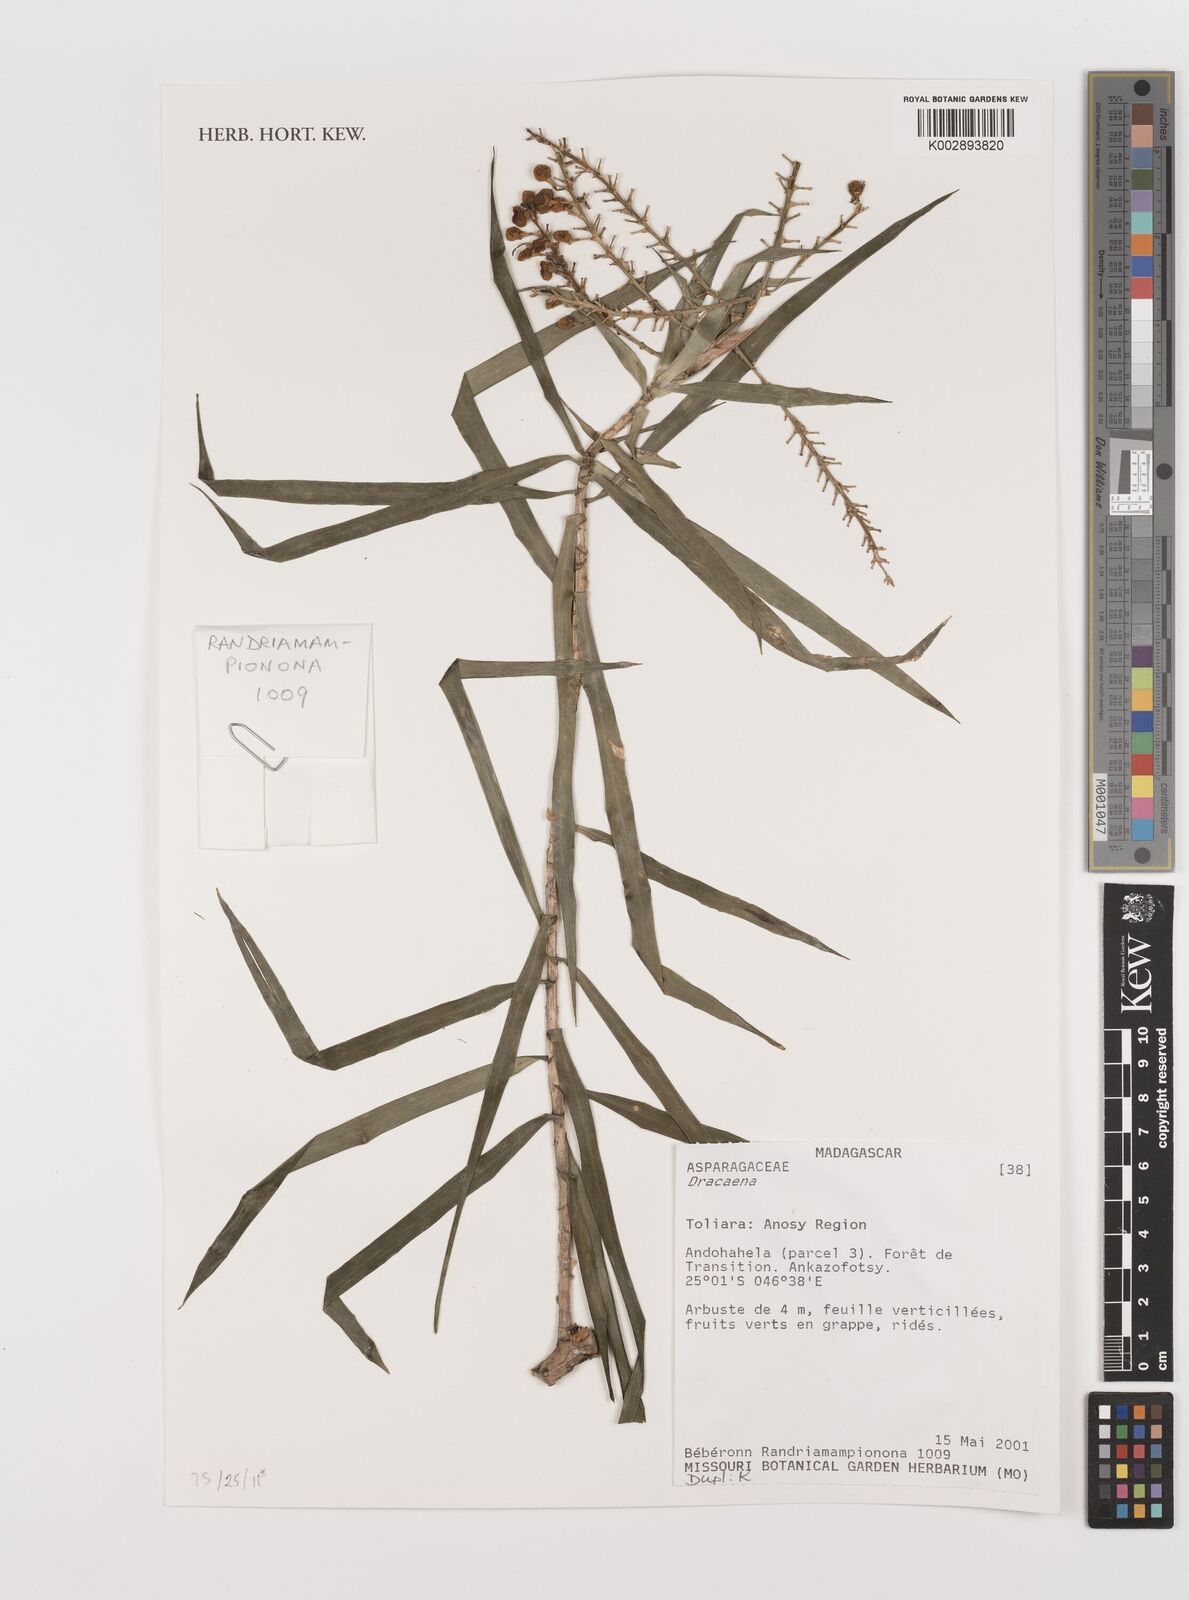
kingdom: Plantae
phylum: Tracheophyta
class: Liliopsida
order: Asparagales
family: Asparagaceae
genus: Dracaena
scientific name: Dracaena
